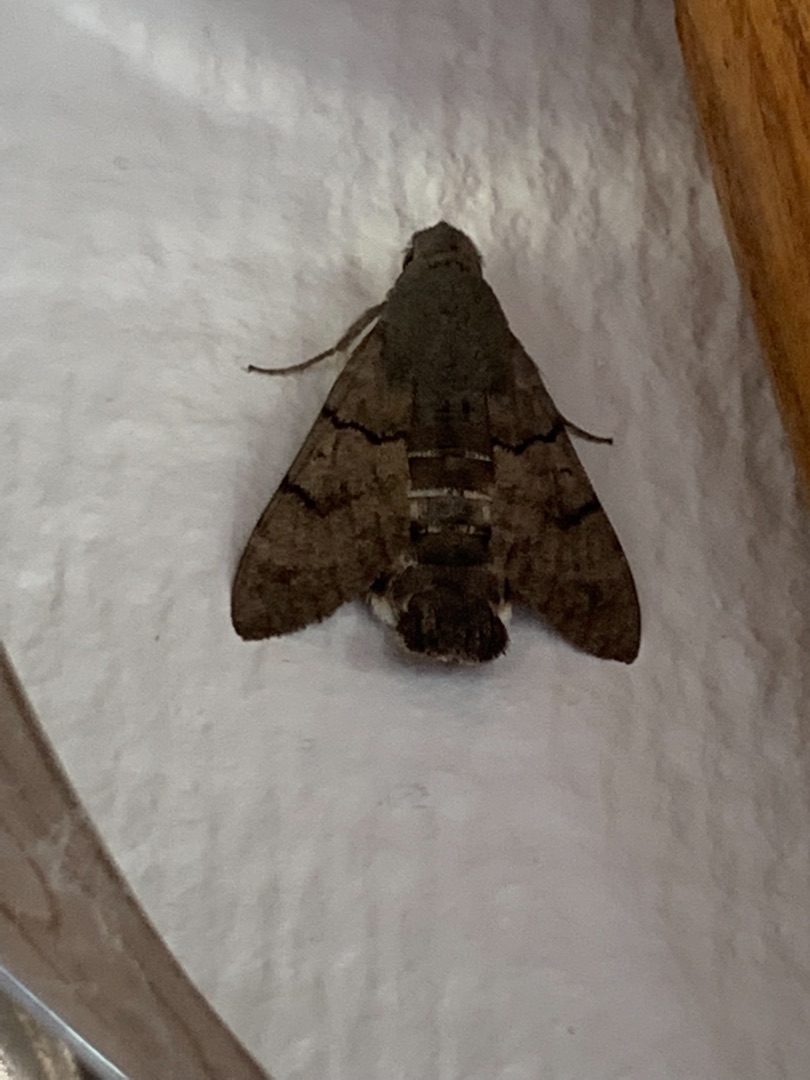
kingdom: Animalia
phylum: Arthropoda
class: Insecta
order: Lepidoptera
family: Sphingidae
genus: Macroglossum
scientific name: Macroglossum stellatarum
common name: Duehale
